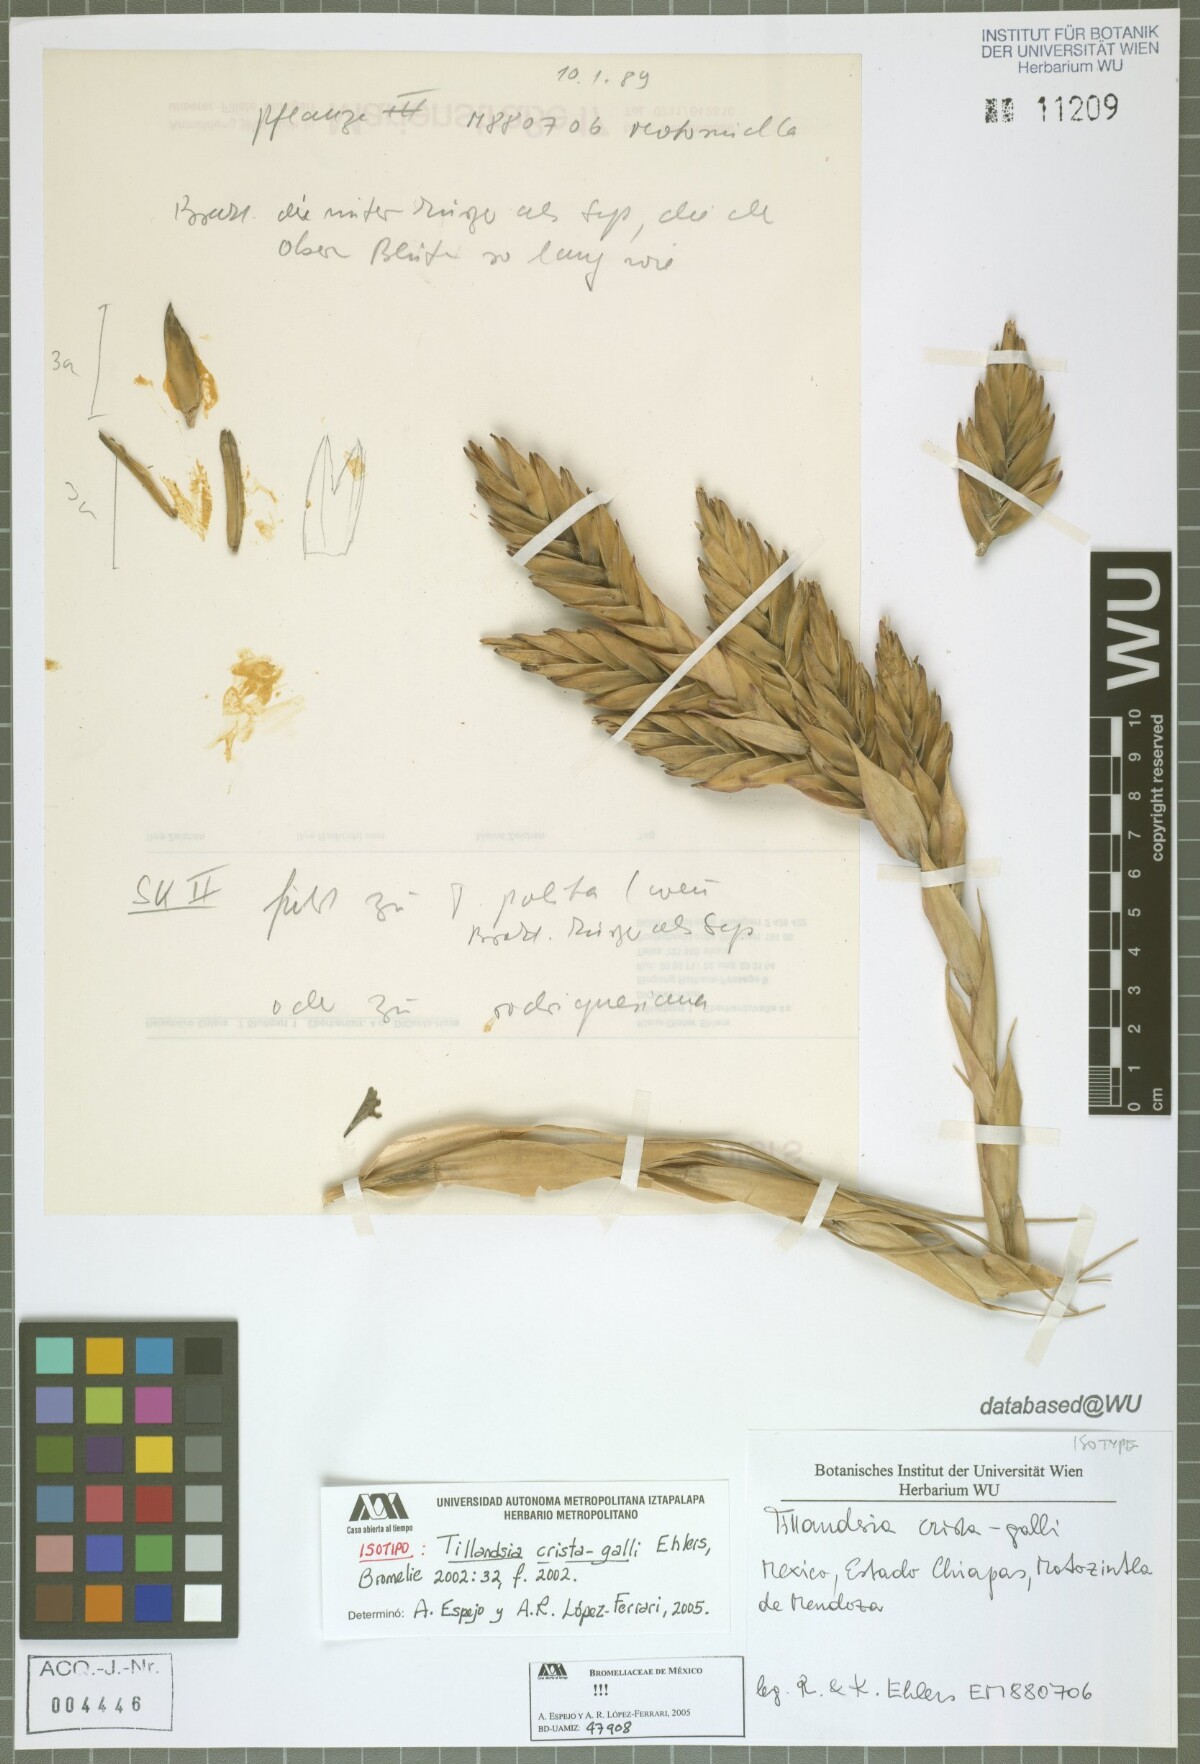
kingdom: Plantae
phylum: Tracheophyta
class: Liliopsida
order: Poales
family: Bromeliaceae
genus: Tillandsia
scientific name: Tillandsia crista-galli
